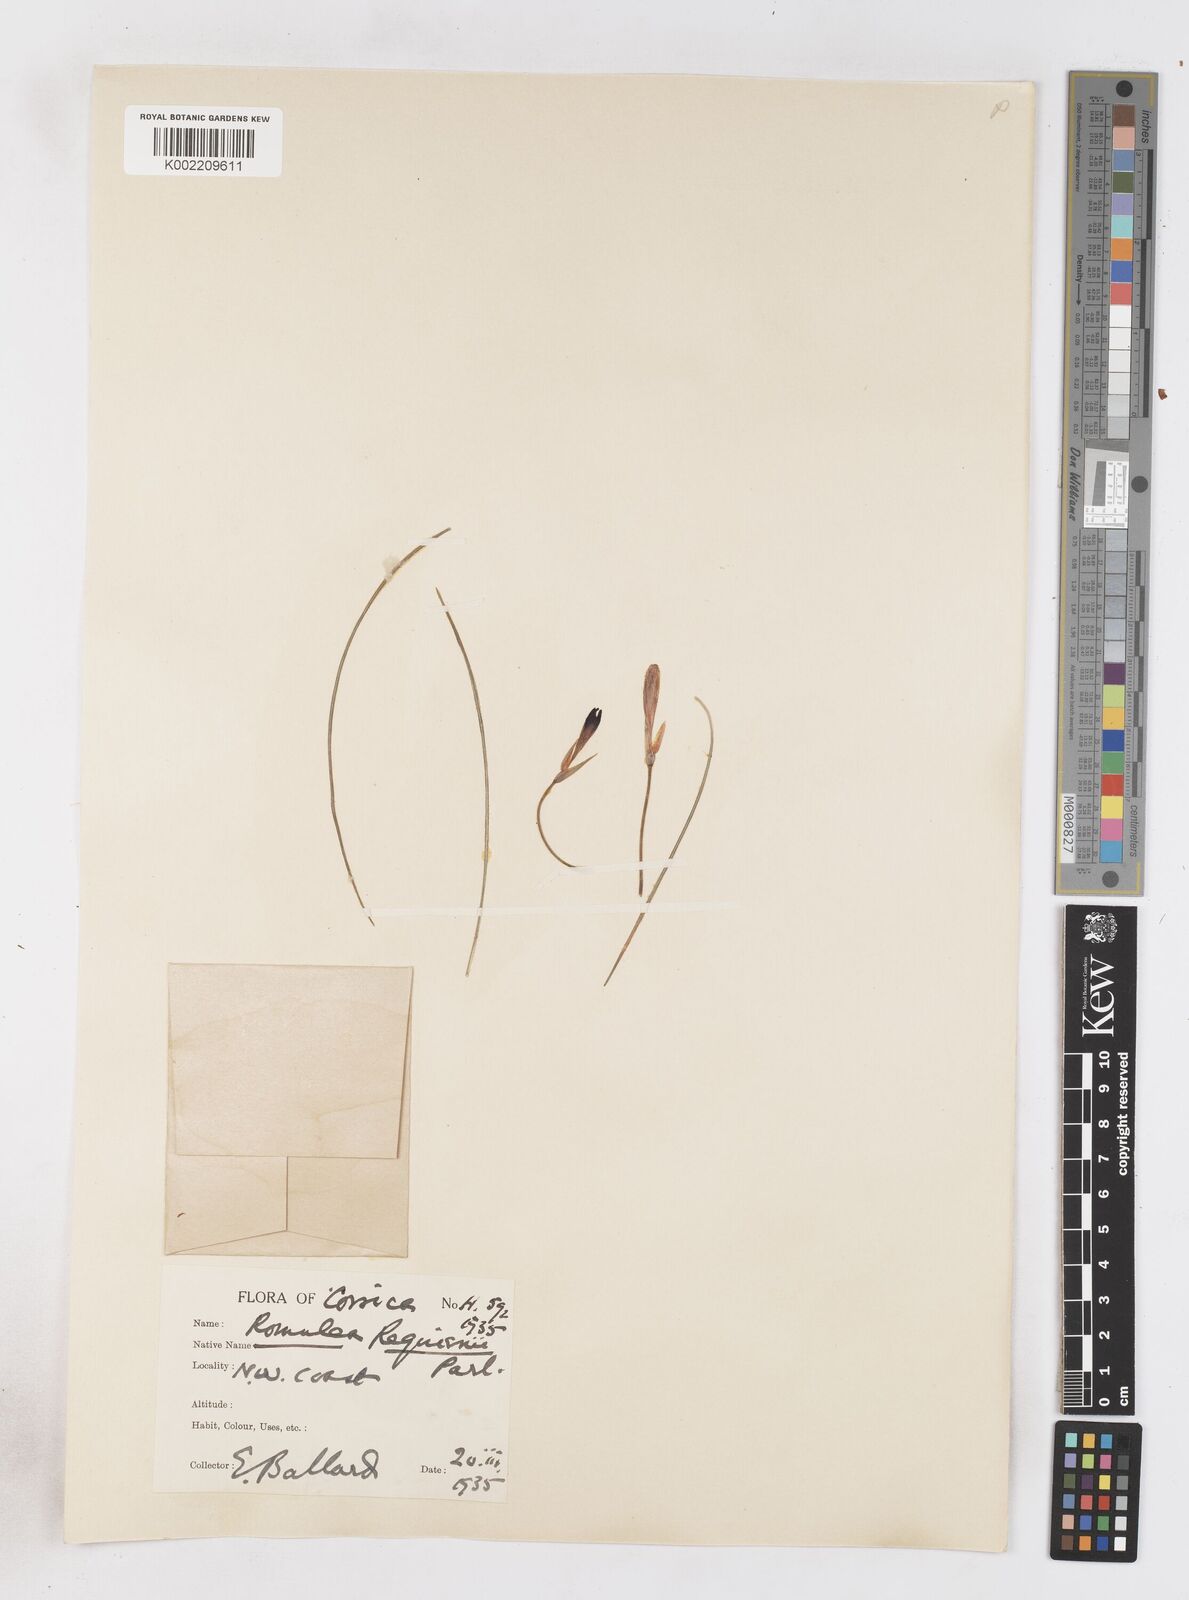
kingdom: Plantae
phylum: Tracheophyta
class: Liliopsida
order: Asparagales
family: Iridaceae
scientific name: Iridaceae
